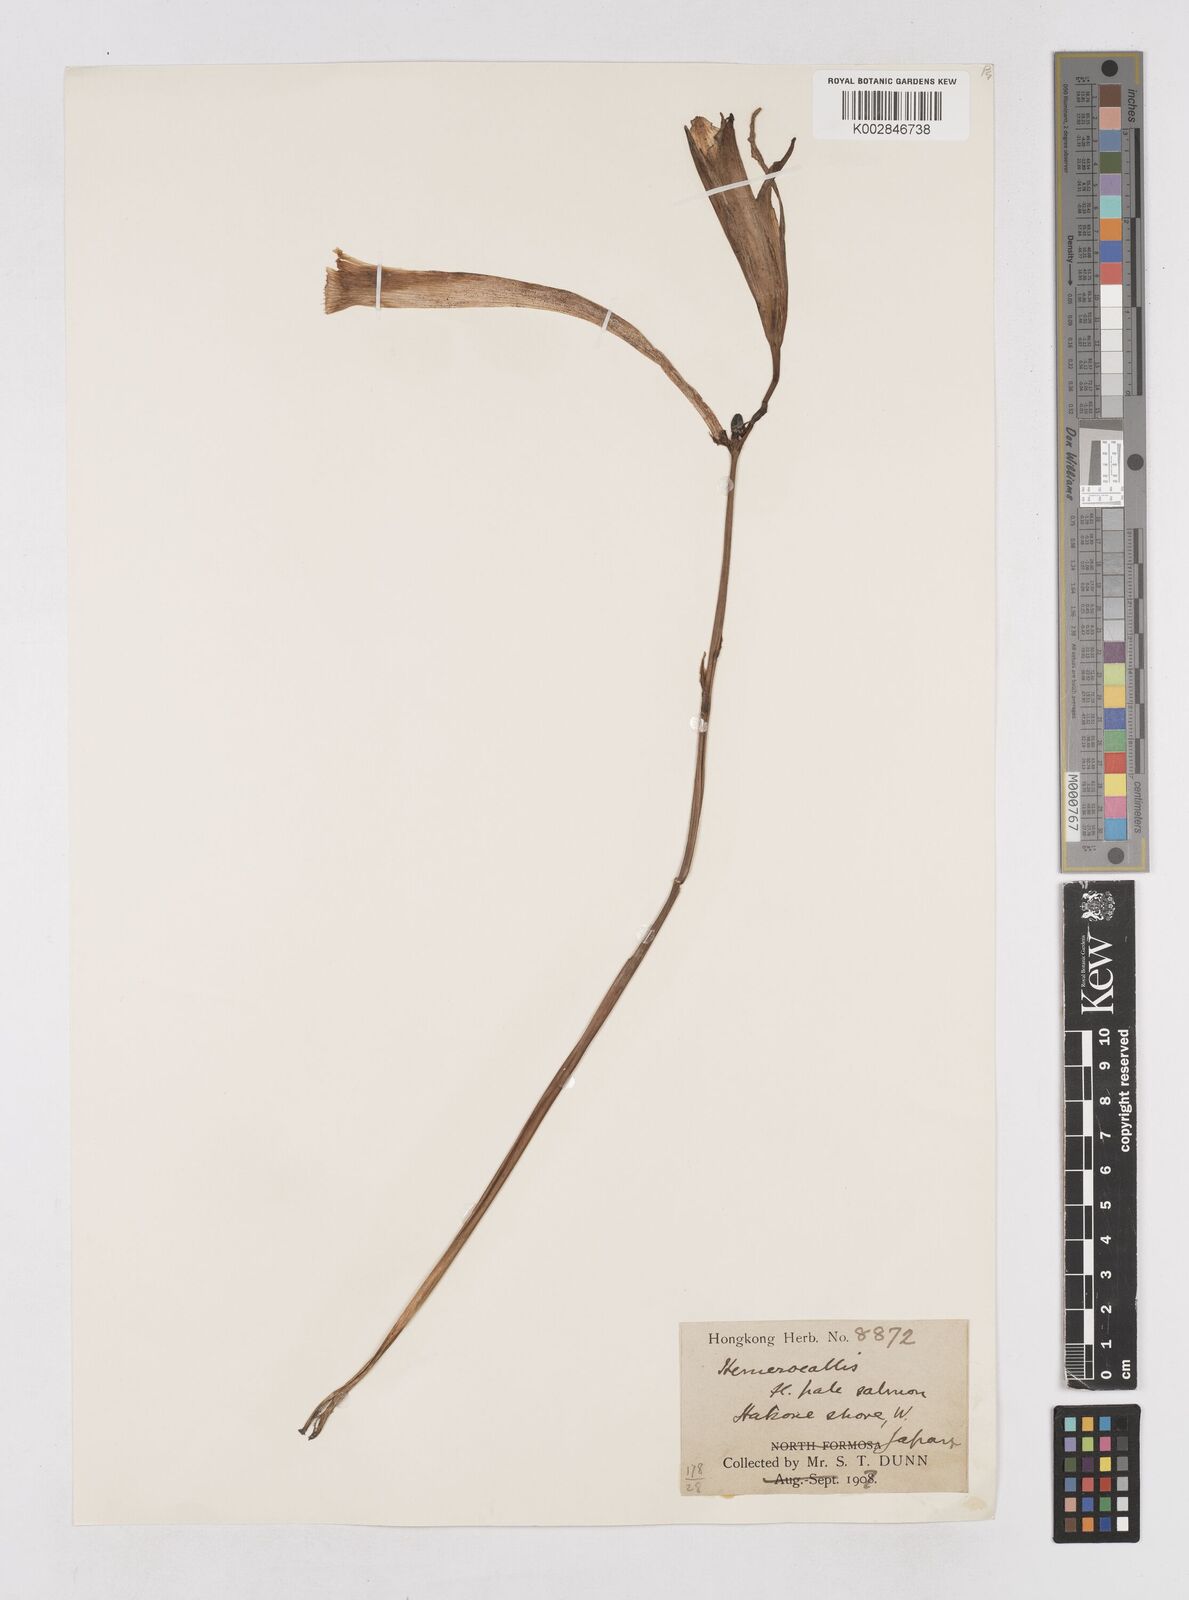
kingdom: Plantae
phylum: Tracheophyta
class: Liliopsida
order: Asparagales
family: Asphodelaceae
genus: Hemerocallis
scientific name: Hemerocallis
